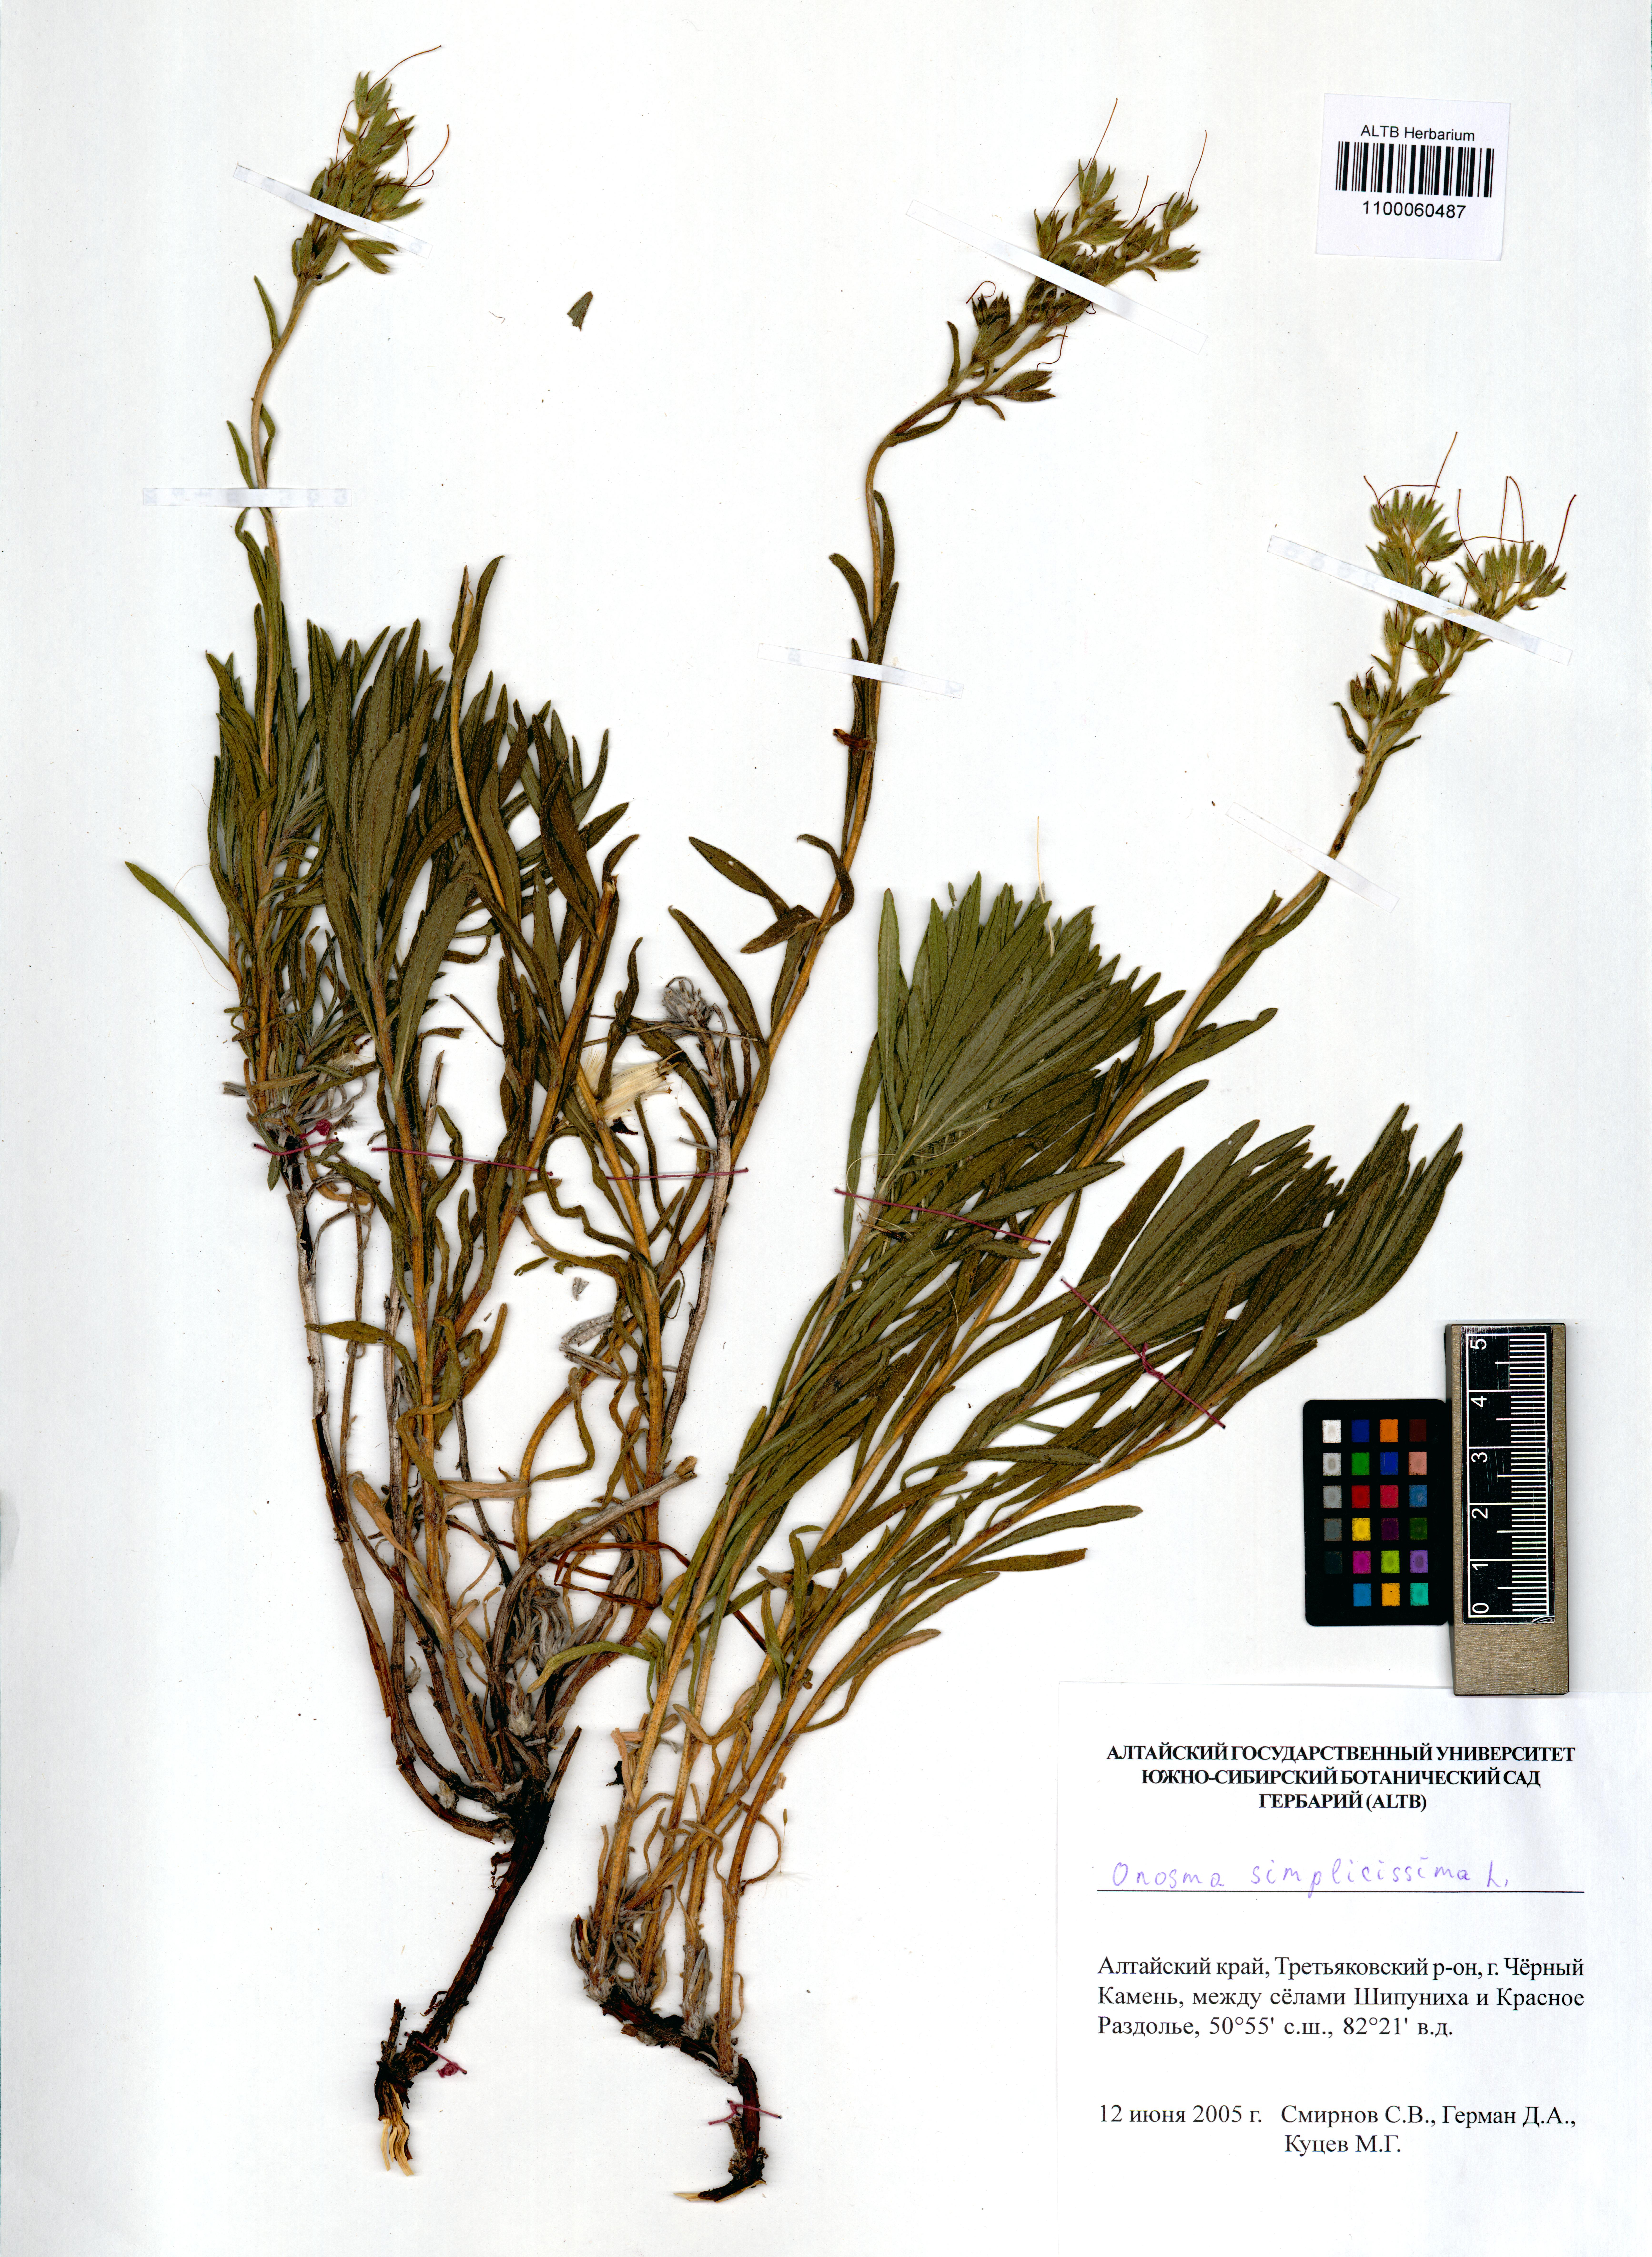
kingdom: Plantae
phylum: Tracheophyta
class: Magnoliopsida
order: Boraginales
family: Boraginaceae
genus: Onosma
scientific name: Onosma simplicissima
